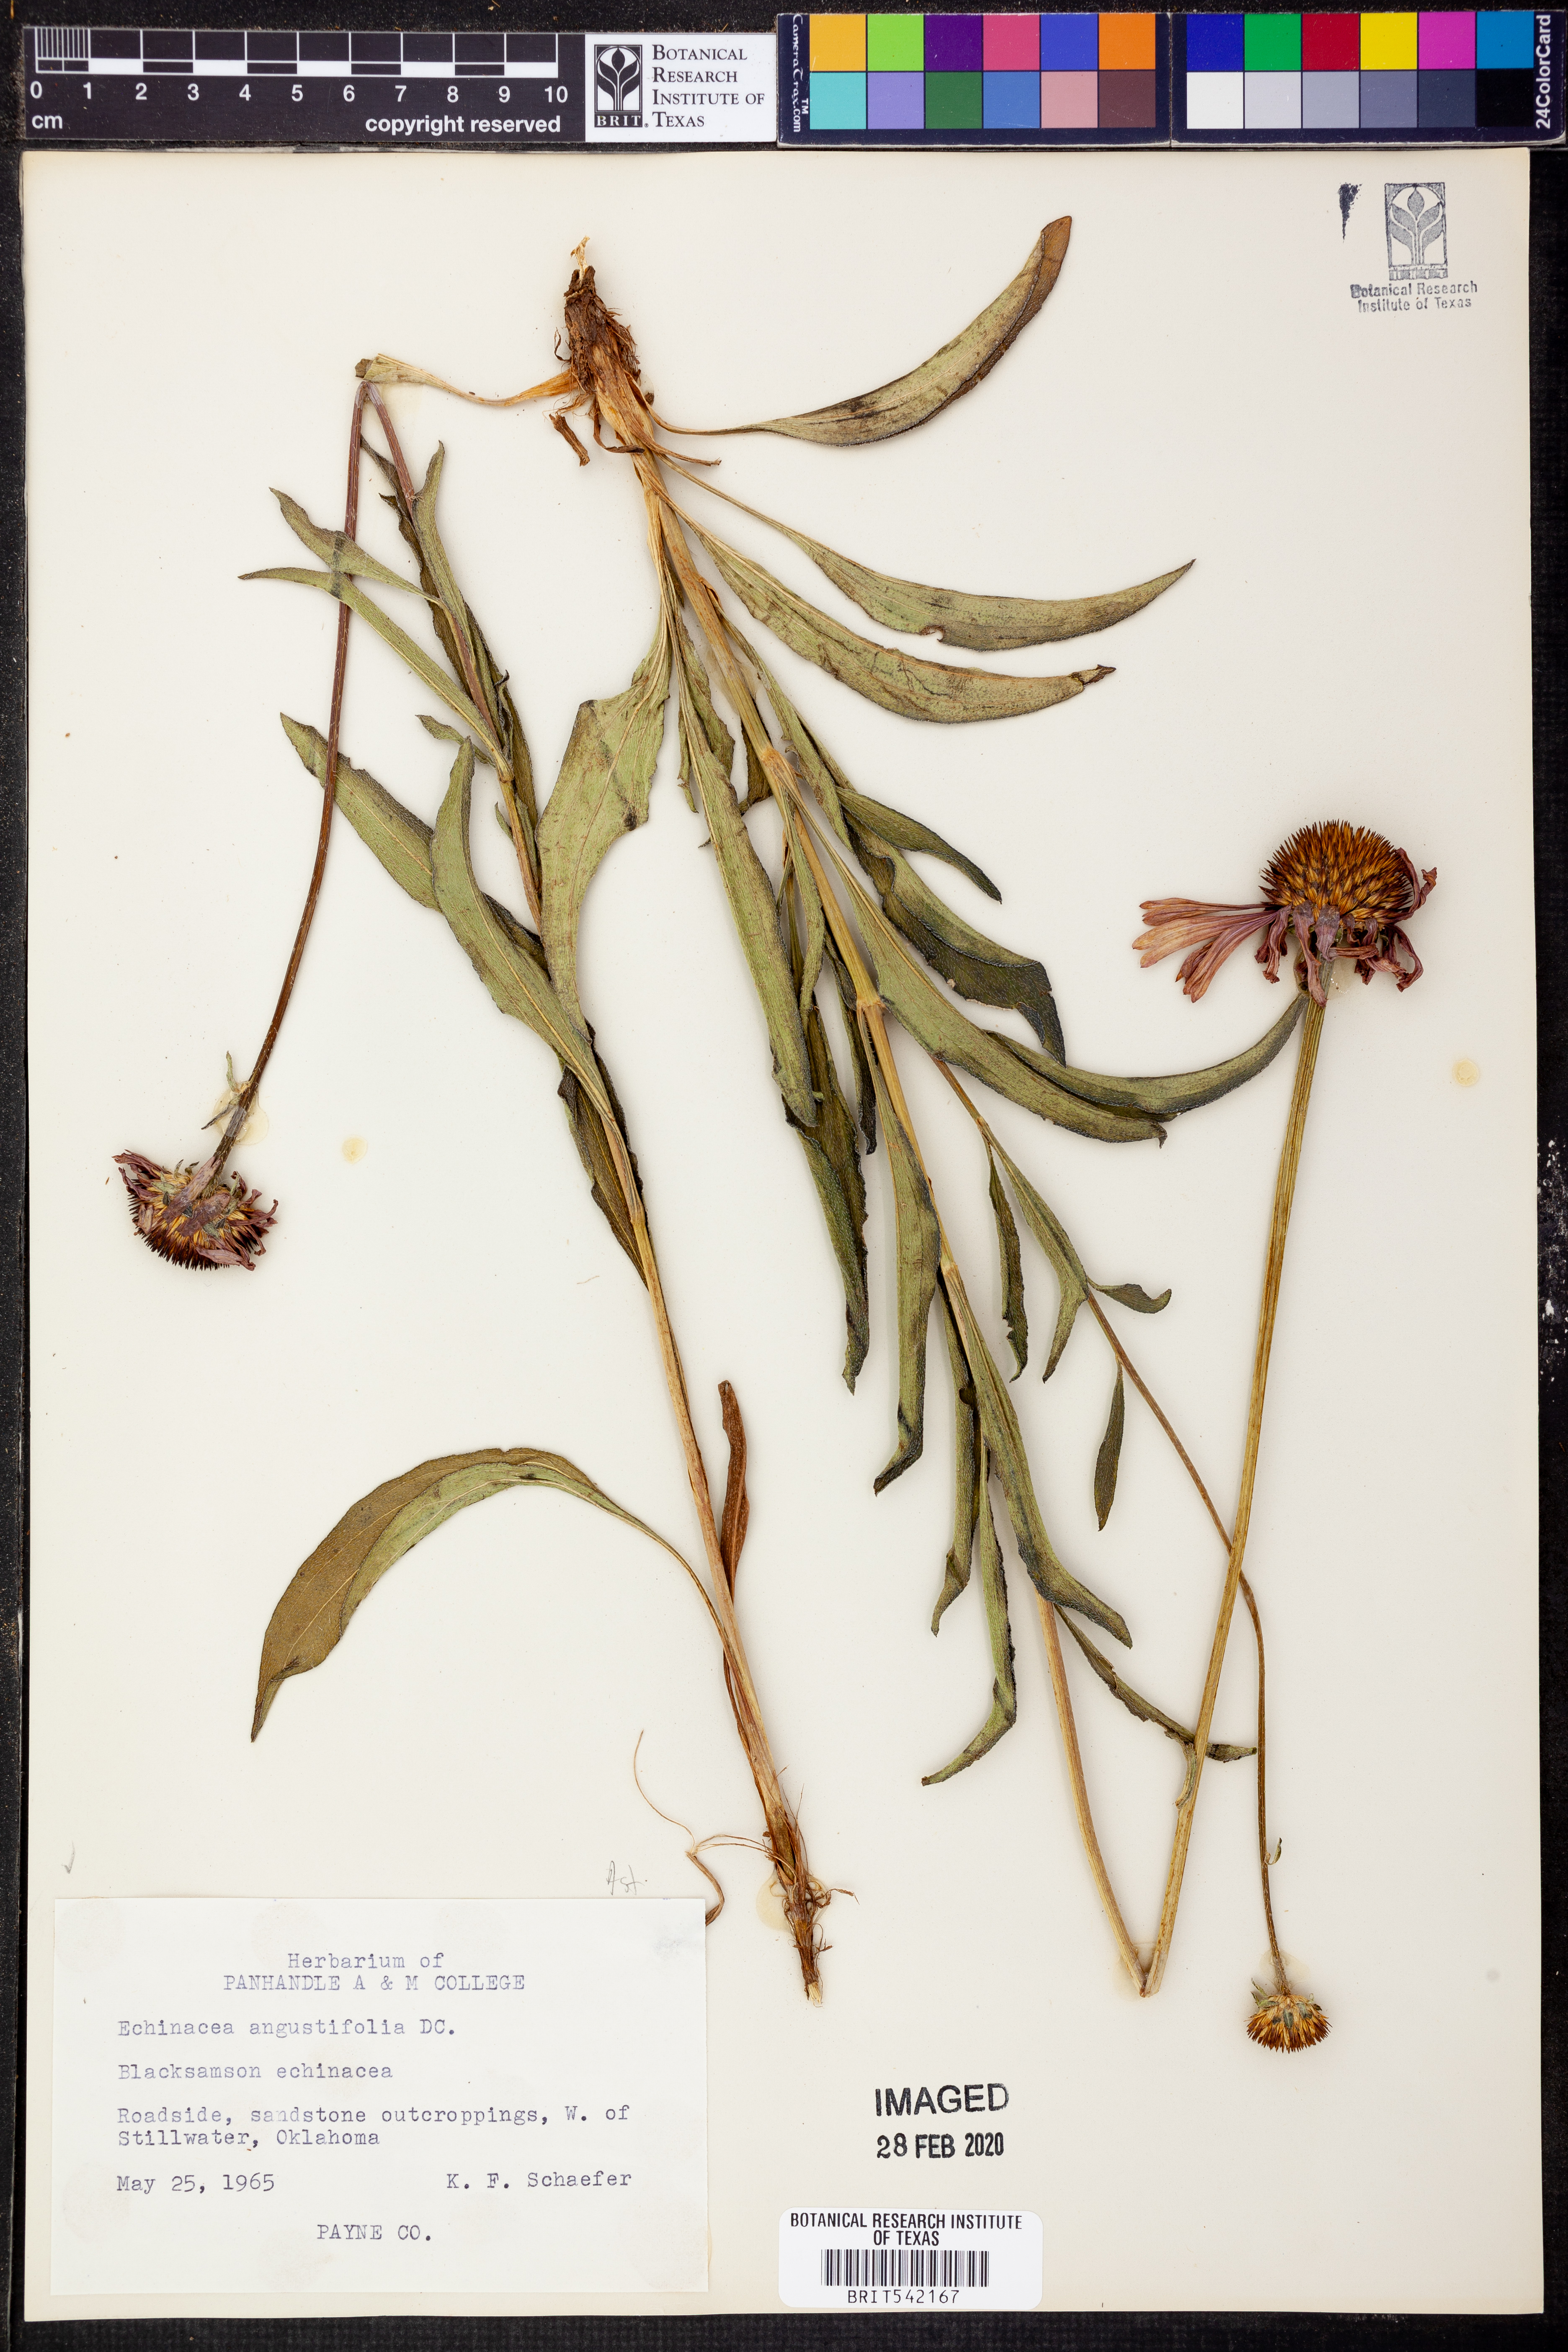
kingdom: Plantae
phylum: Tracheophyta
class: Magnoliopsida
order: Asterales
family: Asteraceae
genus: Echinacea
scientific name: Echinacea angustifolia
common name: Black-sampson echinacea
